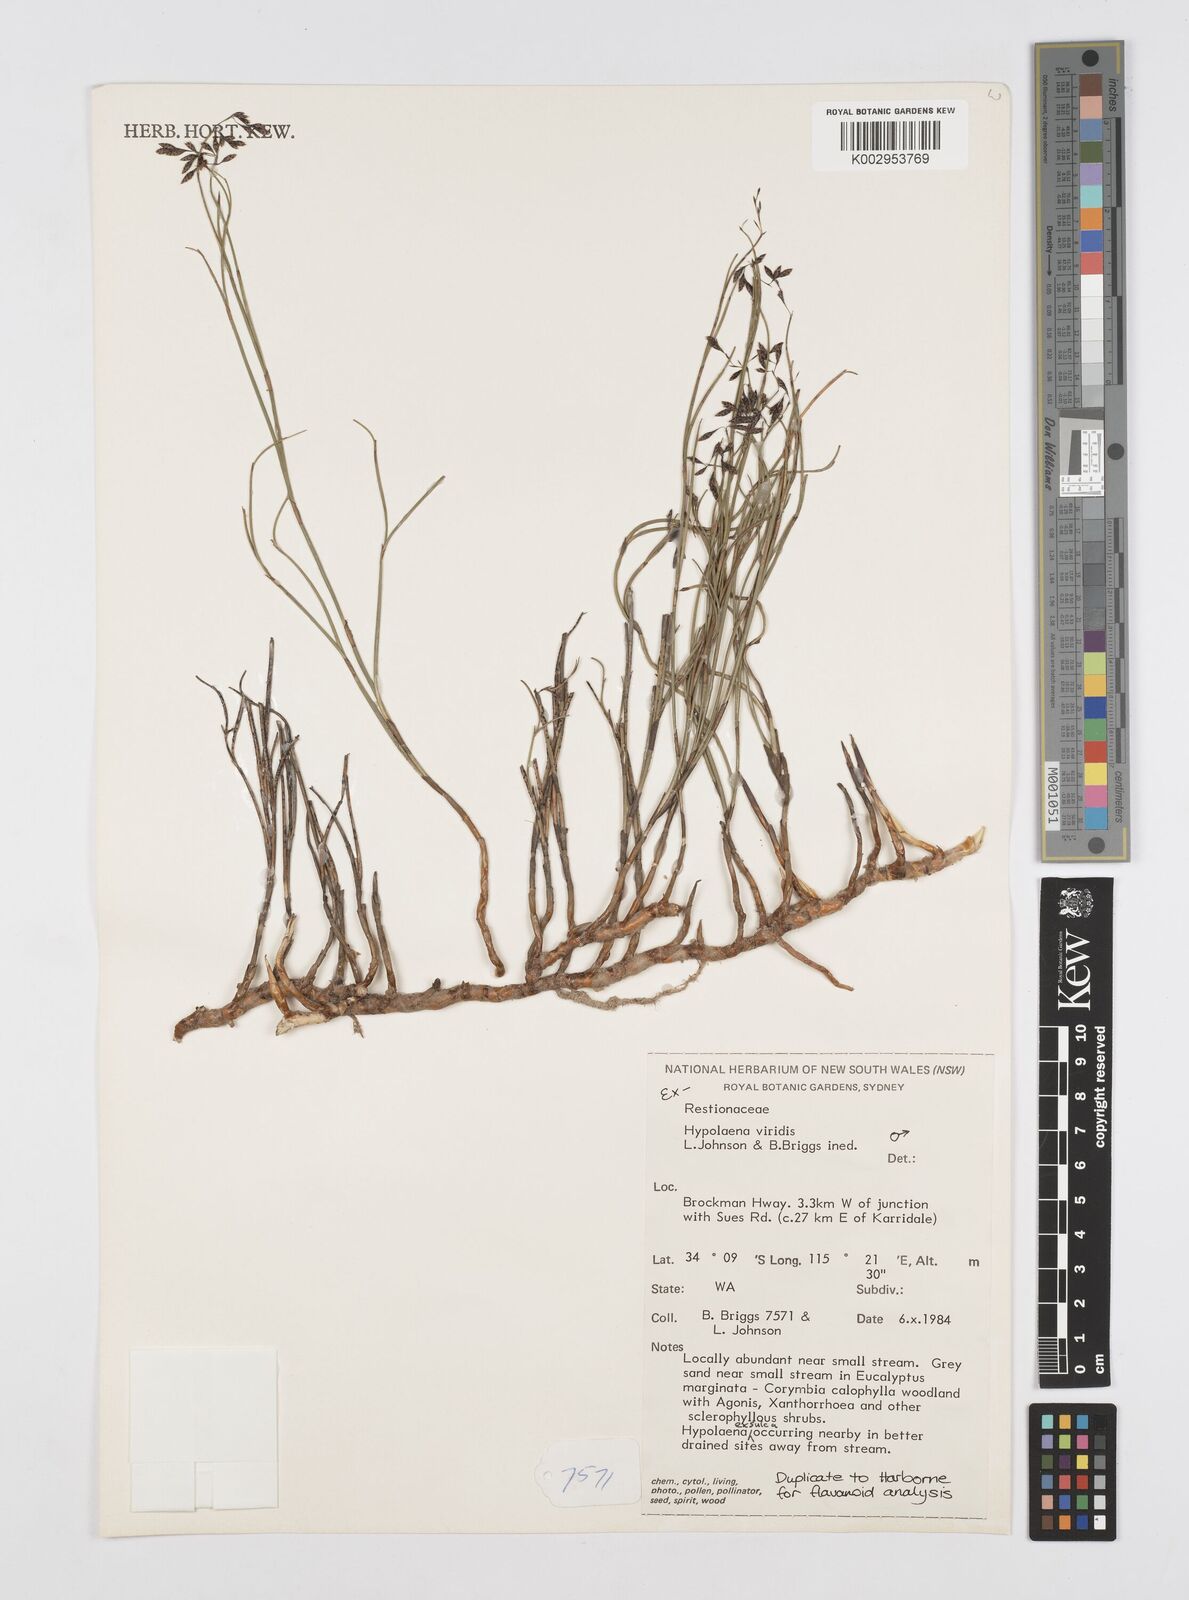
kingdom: Plantae
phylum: Tracheophyta
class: Liliopsida
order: Poales
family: Restionaceae
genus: Hypolaena
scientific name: Hypolaena viridis
